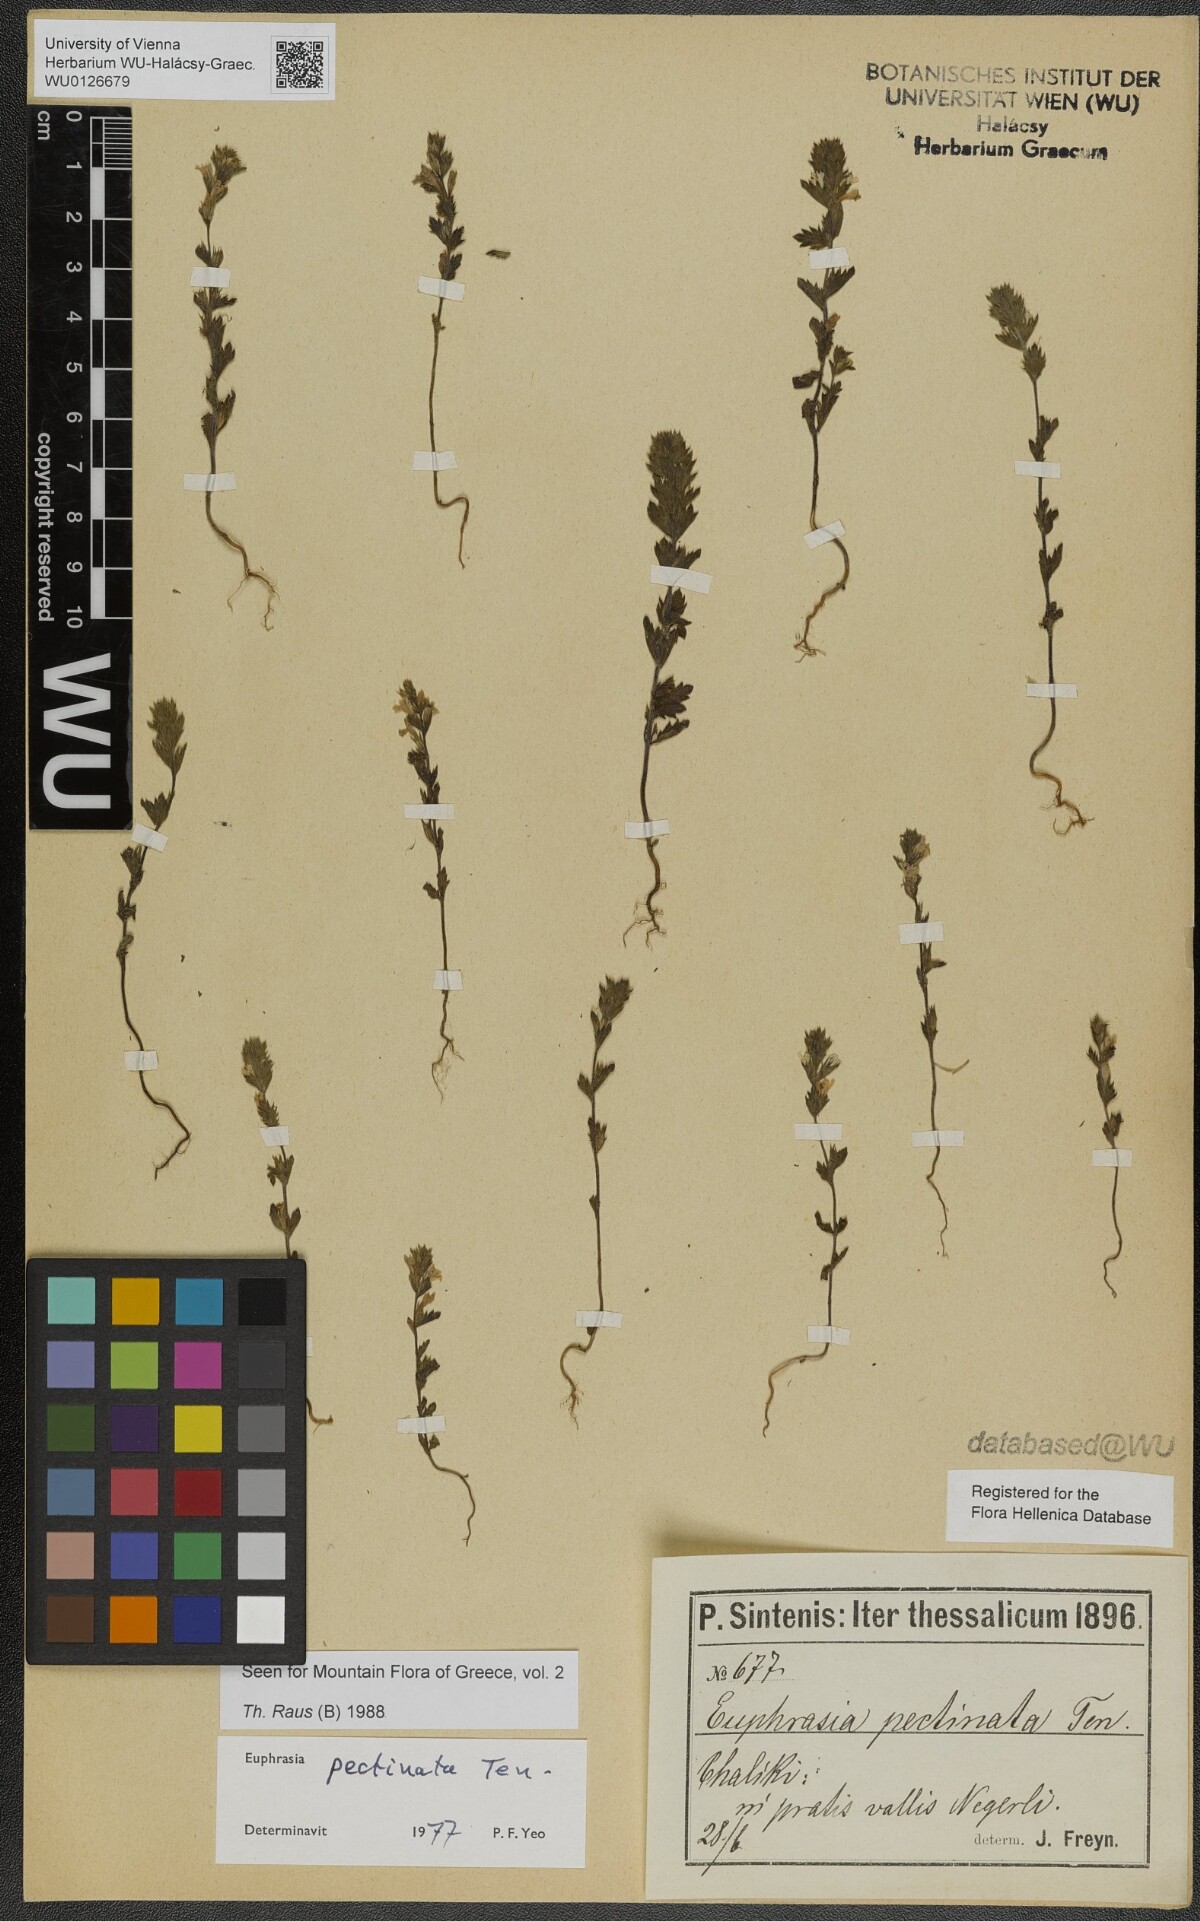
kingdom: Plantae
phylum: Tracheophyta
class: Magnoliopsida
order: Lamiales
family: Orobanchaceae
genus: Euphrasia
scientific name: Euphrasia pectinata
